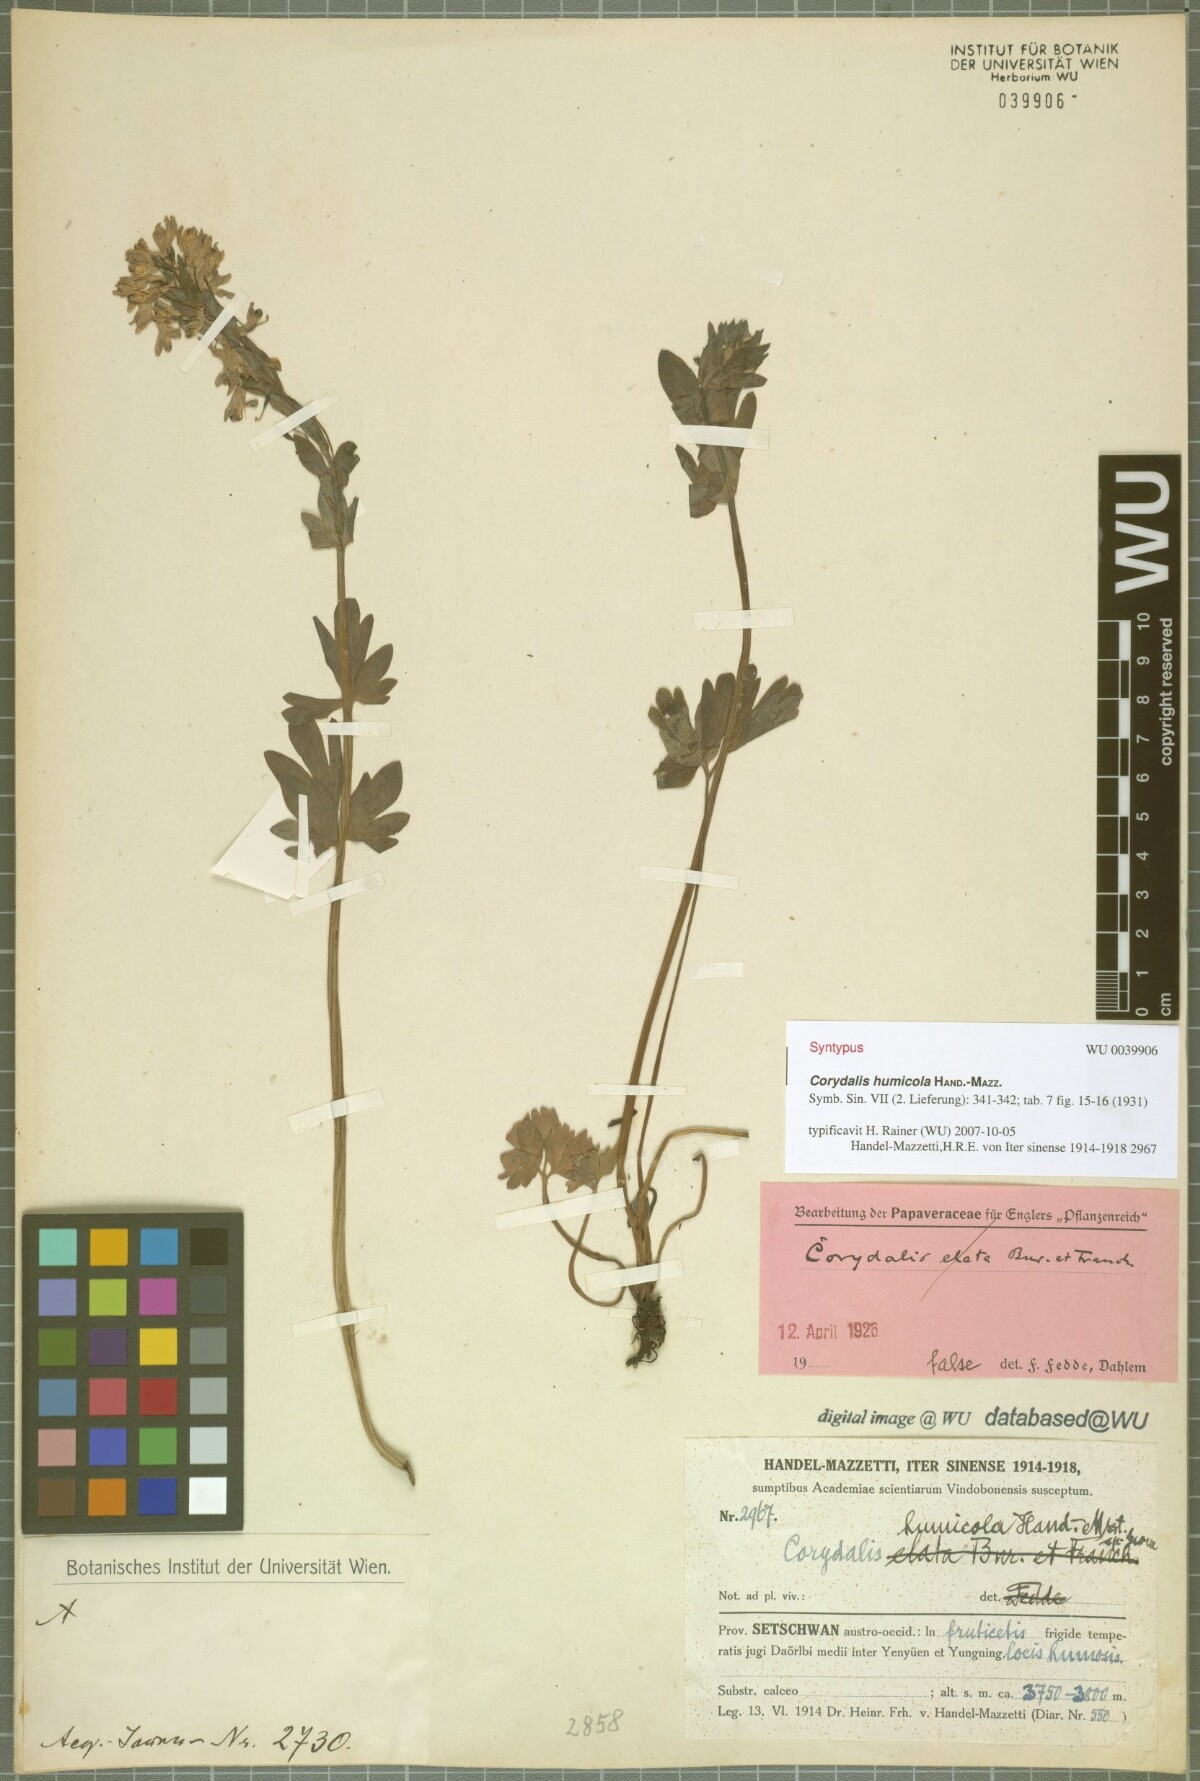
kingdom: Plantae
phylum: Tracheophyta
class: Magnoliopsida
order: Ranunculales
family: Papaveraceae
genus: Corydalis
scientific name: Corydalis humicola
